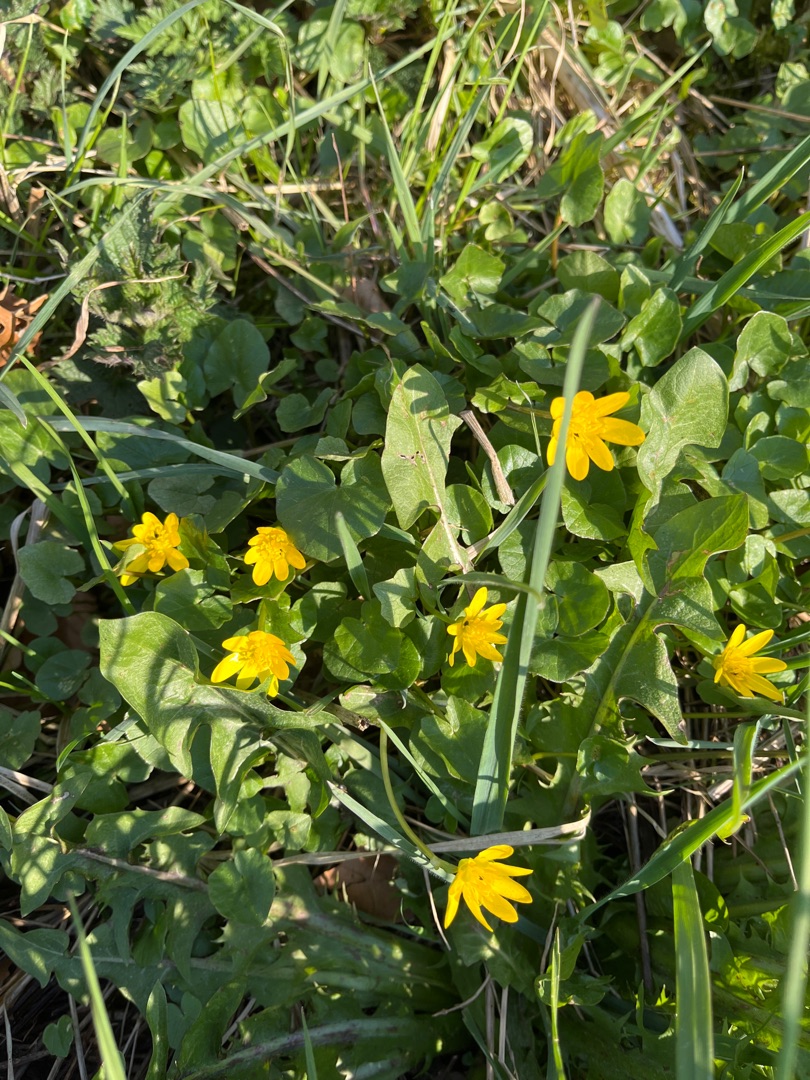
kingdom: Plantae
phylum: Tracheophyta
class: Magnoliopsida
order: Ranunculales
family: Ranunculaceae
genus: Ficaria
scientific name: Ficaria verna
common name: Vorterod
